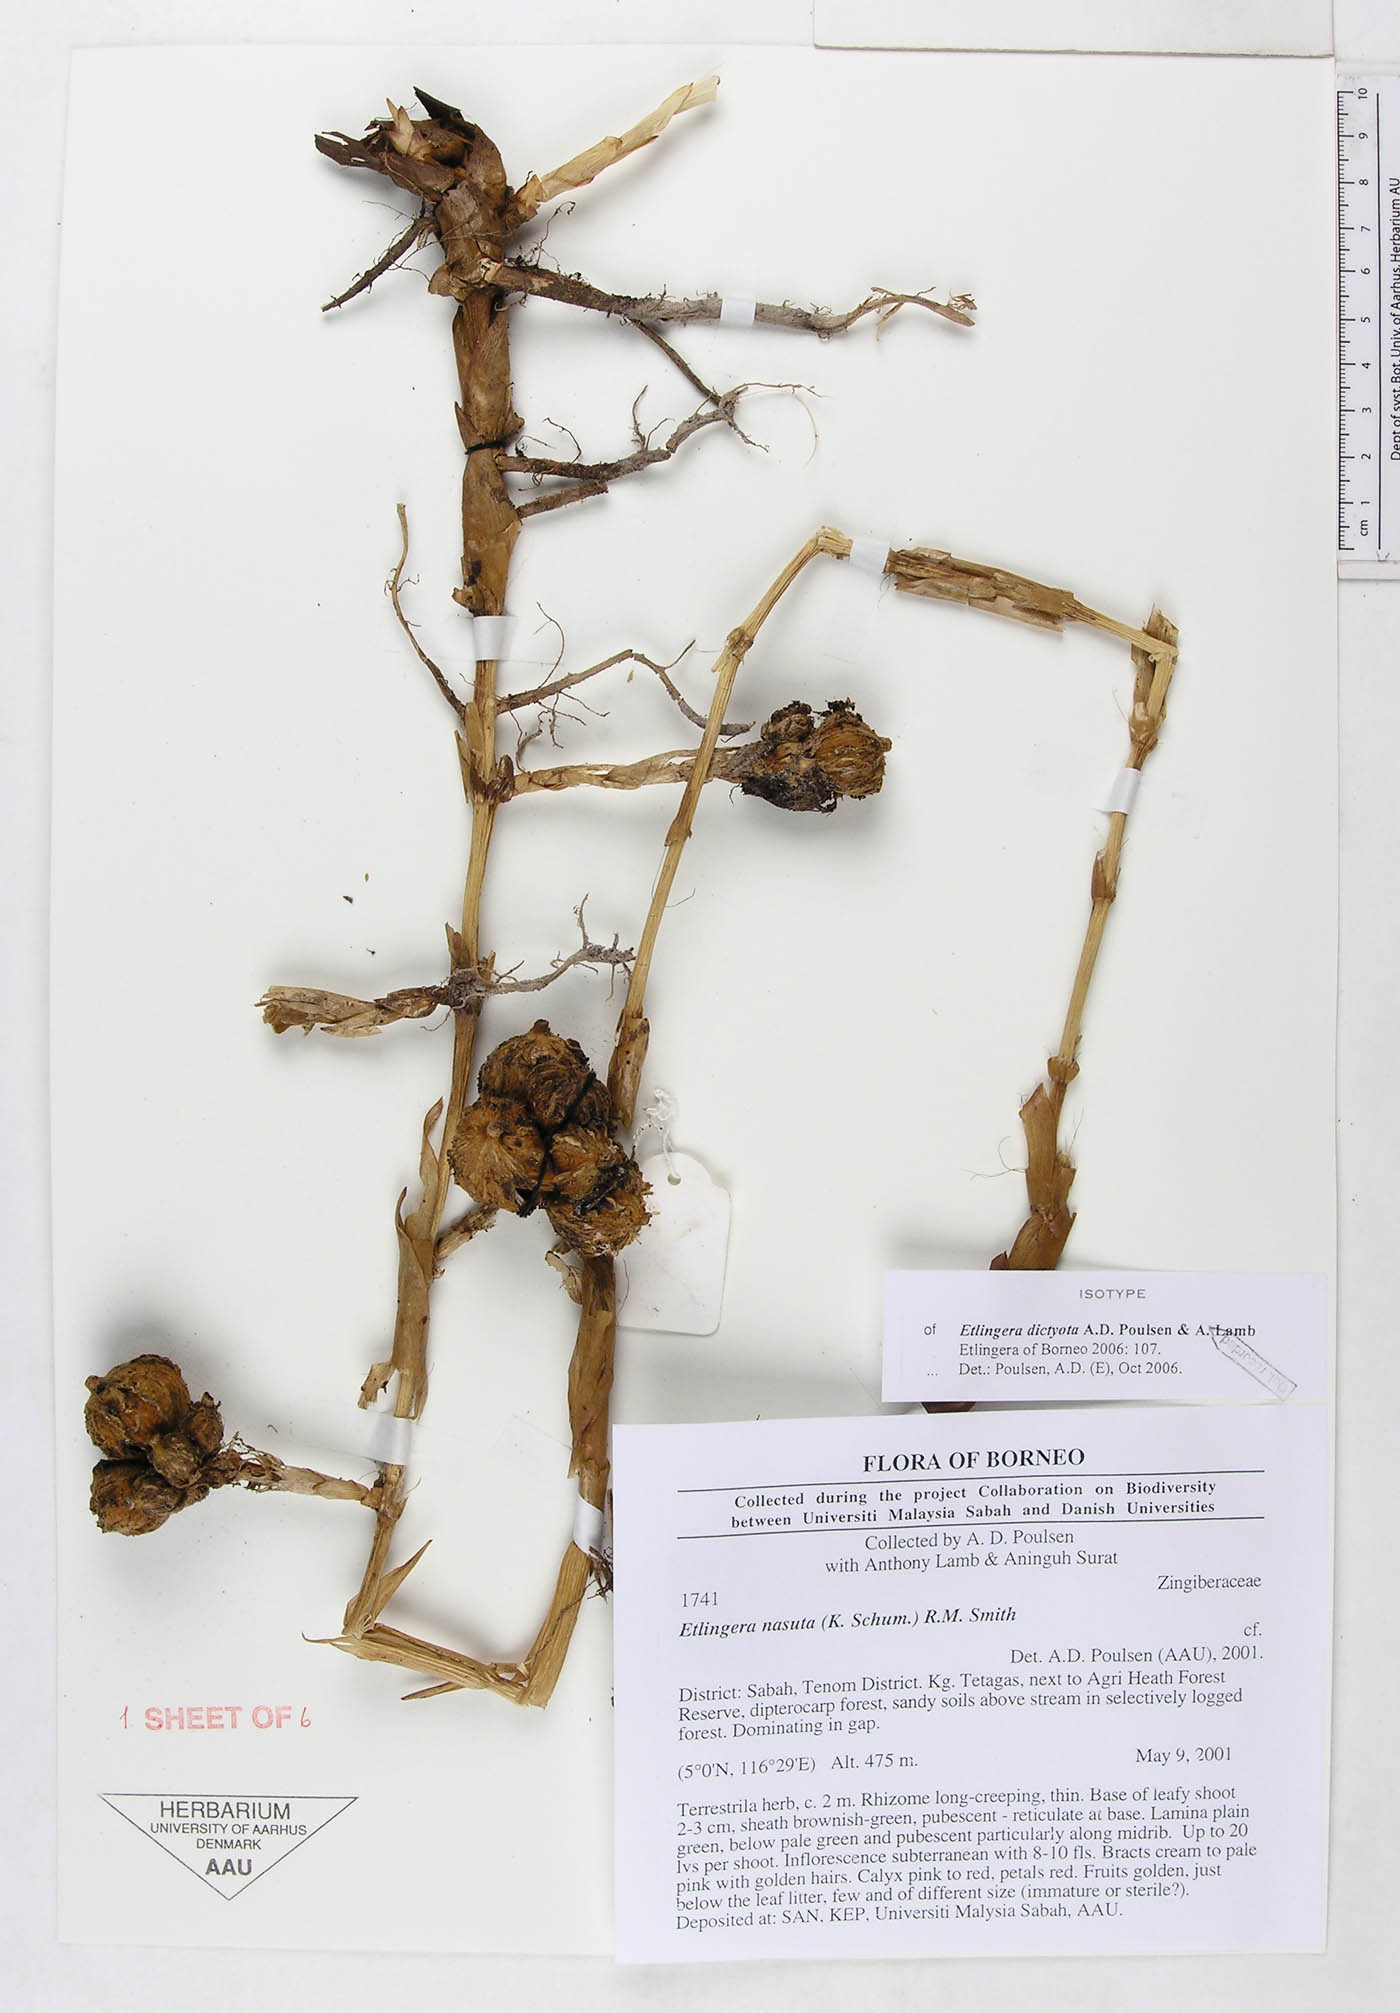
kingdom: Plantae
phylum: Tracheophyta
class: Liliopsida
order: Zingiberales
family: Zingiberaceae
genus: Etlingera
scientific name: Etlingera dictyota
